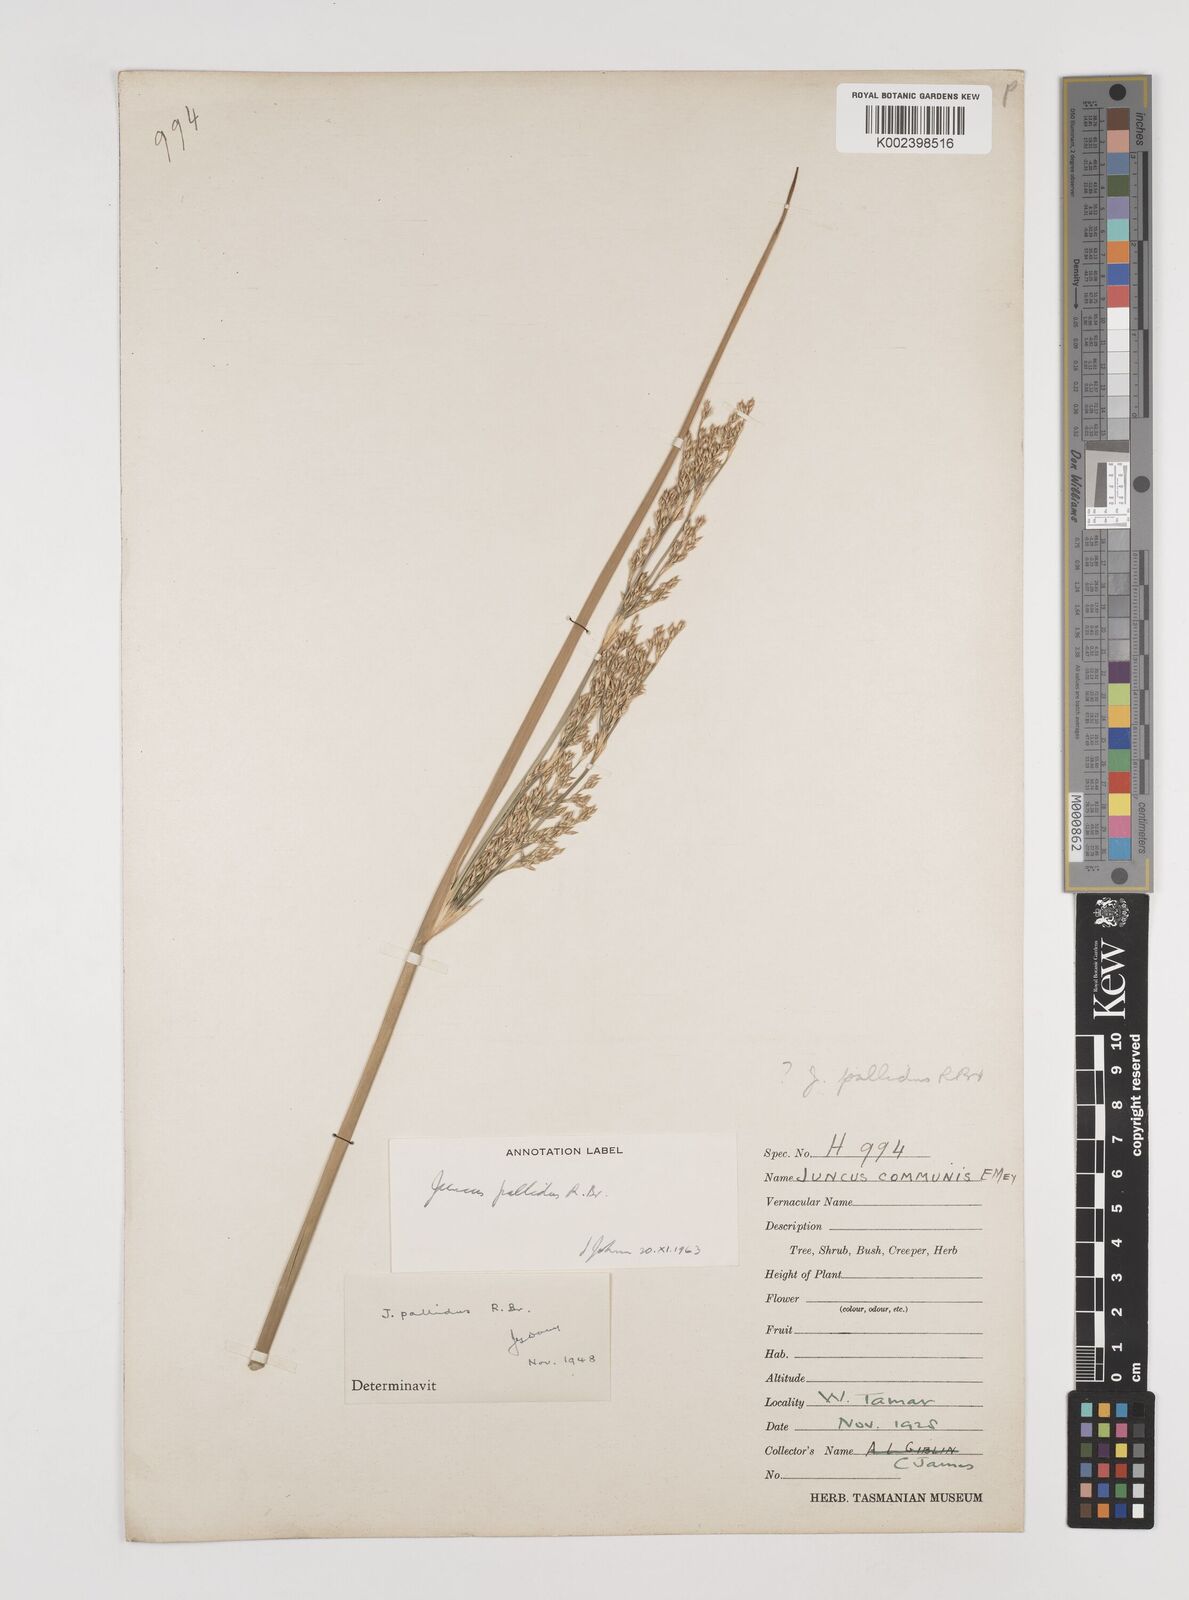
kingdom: Plantae
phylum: Tracheophyta
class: Liliopsida
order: Poales
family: Juncaceae
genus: Juncus
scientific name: Juncus pallidus
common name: Great soft-rush
